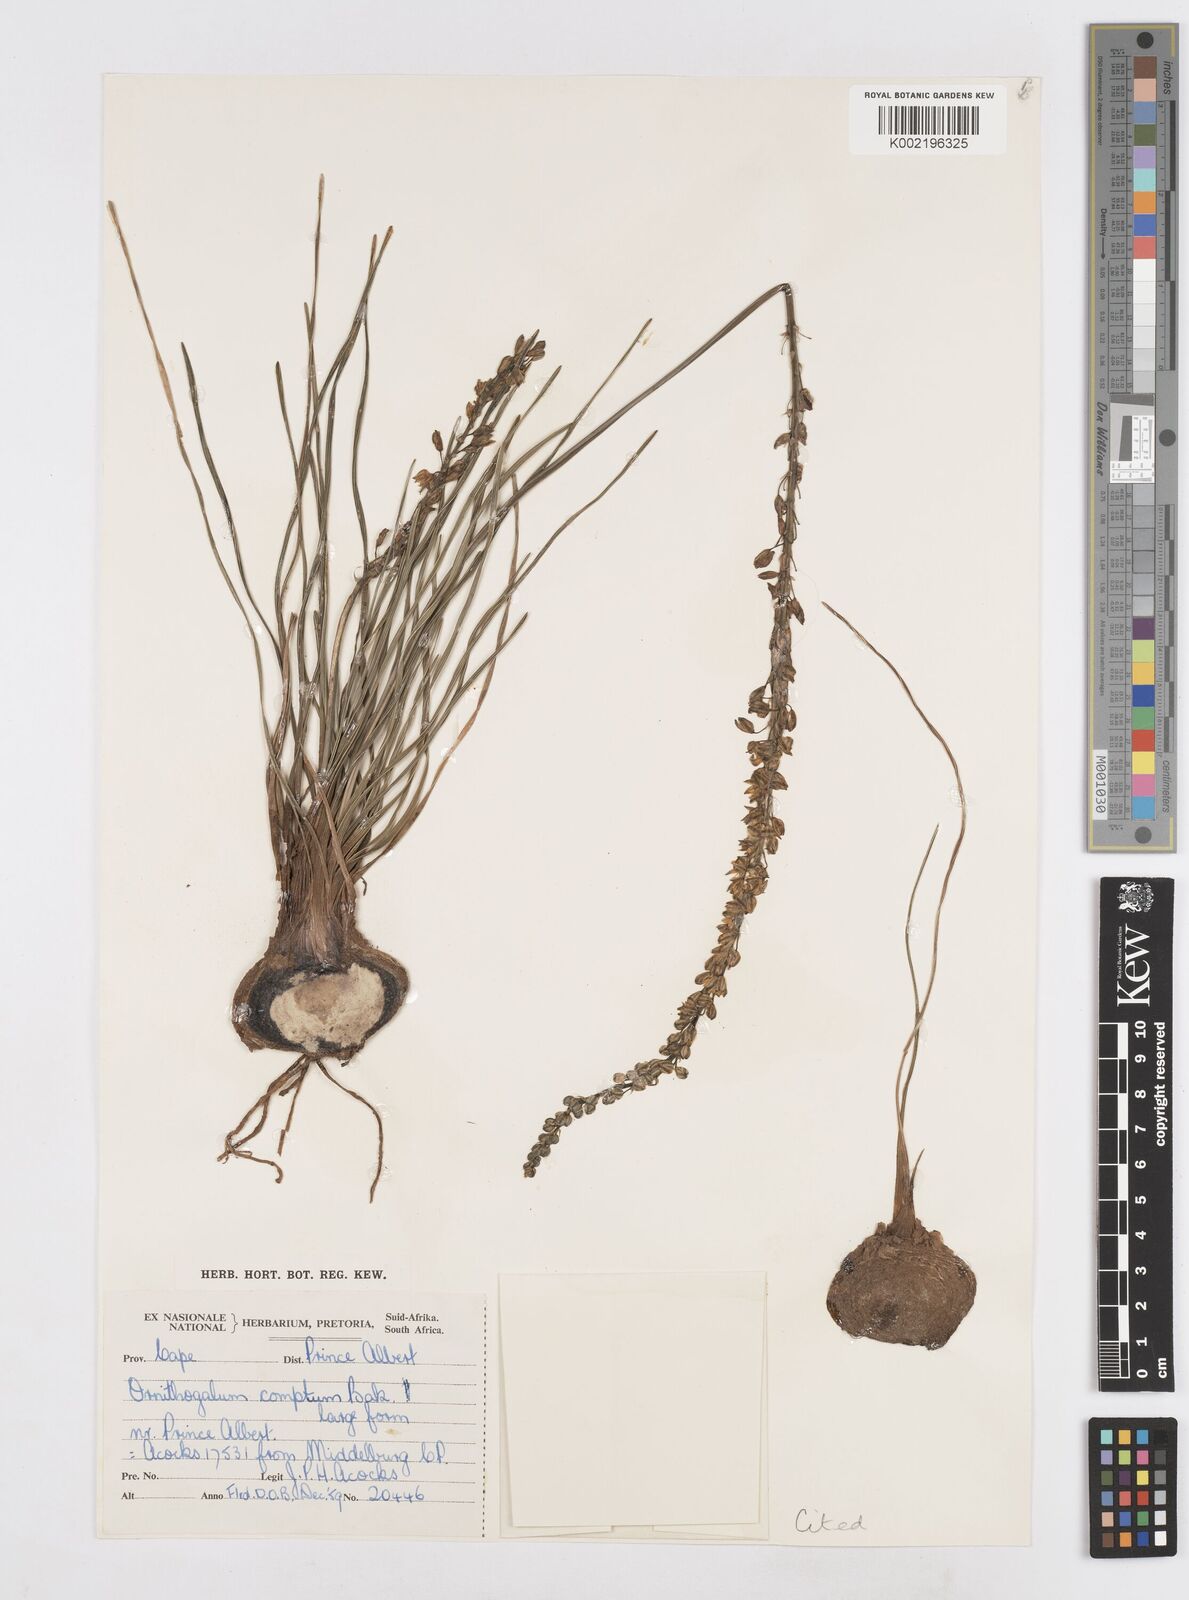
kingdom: Plantae
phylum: Tracheophyta
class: Liliopsida
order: Asparagales
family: Asparagaceae
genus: Ornithogalum
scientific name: Ornithogalum juncifolium
